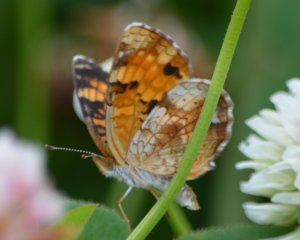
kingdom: Animalia
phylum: Arthropoda
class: Insecta
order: Lepidoptera
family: Nymphalidae
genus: Phyciodes
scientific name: Phyciodes tharos
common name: Northern Crescent
